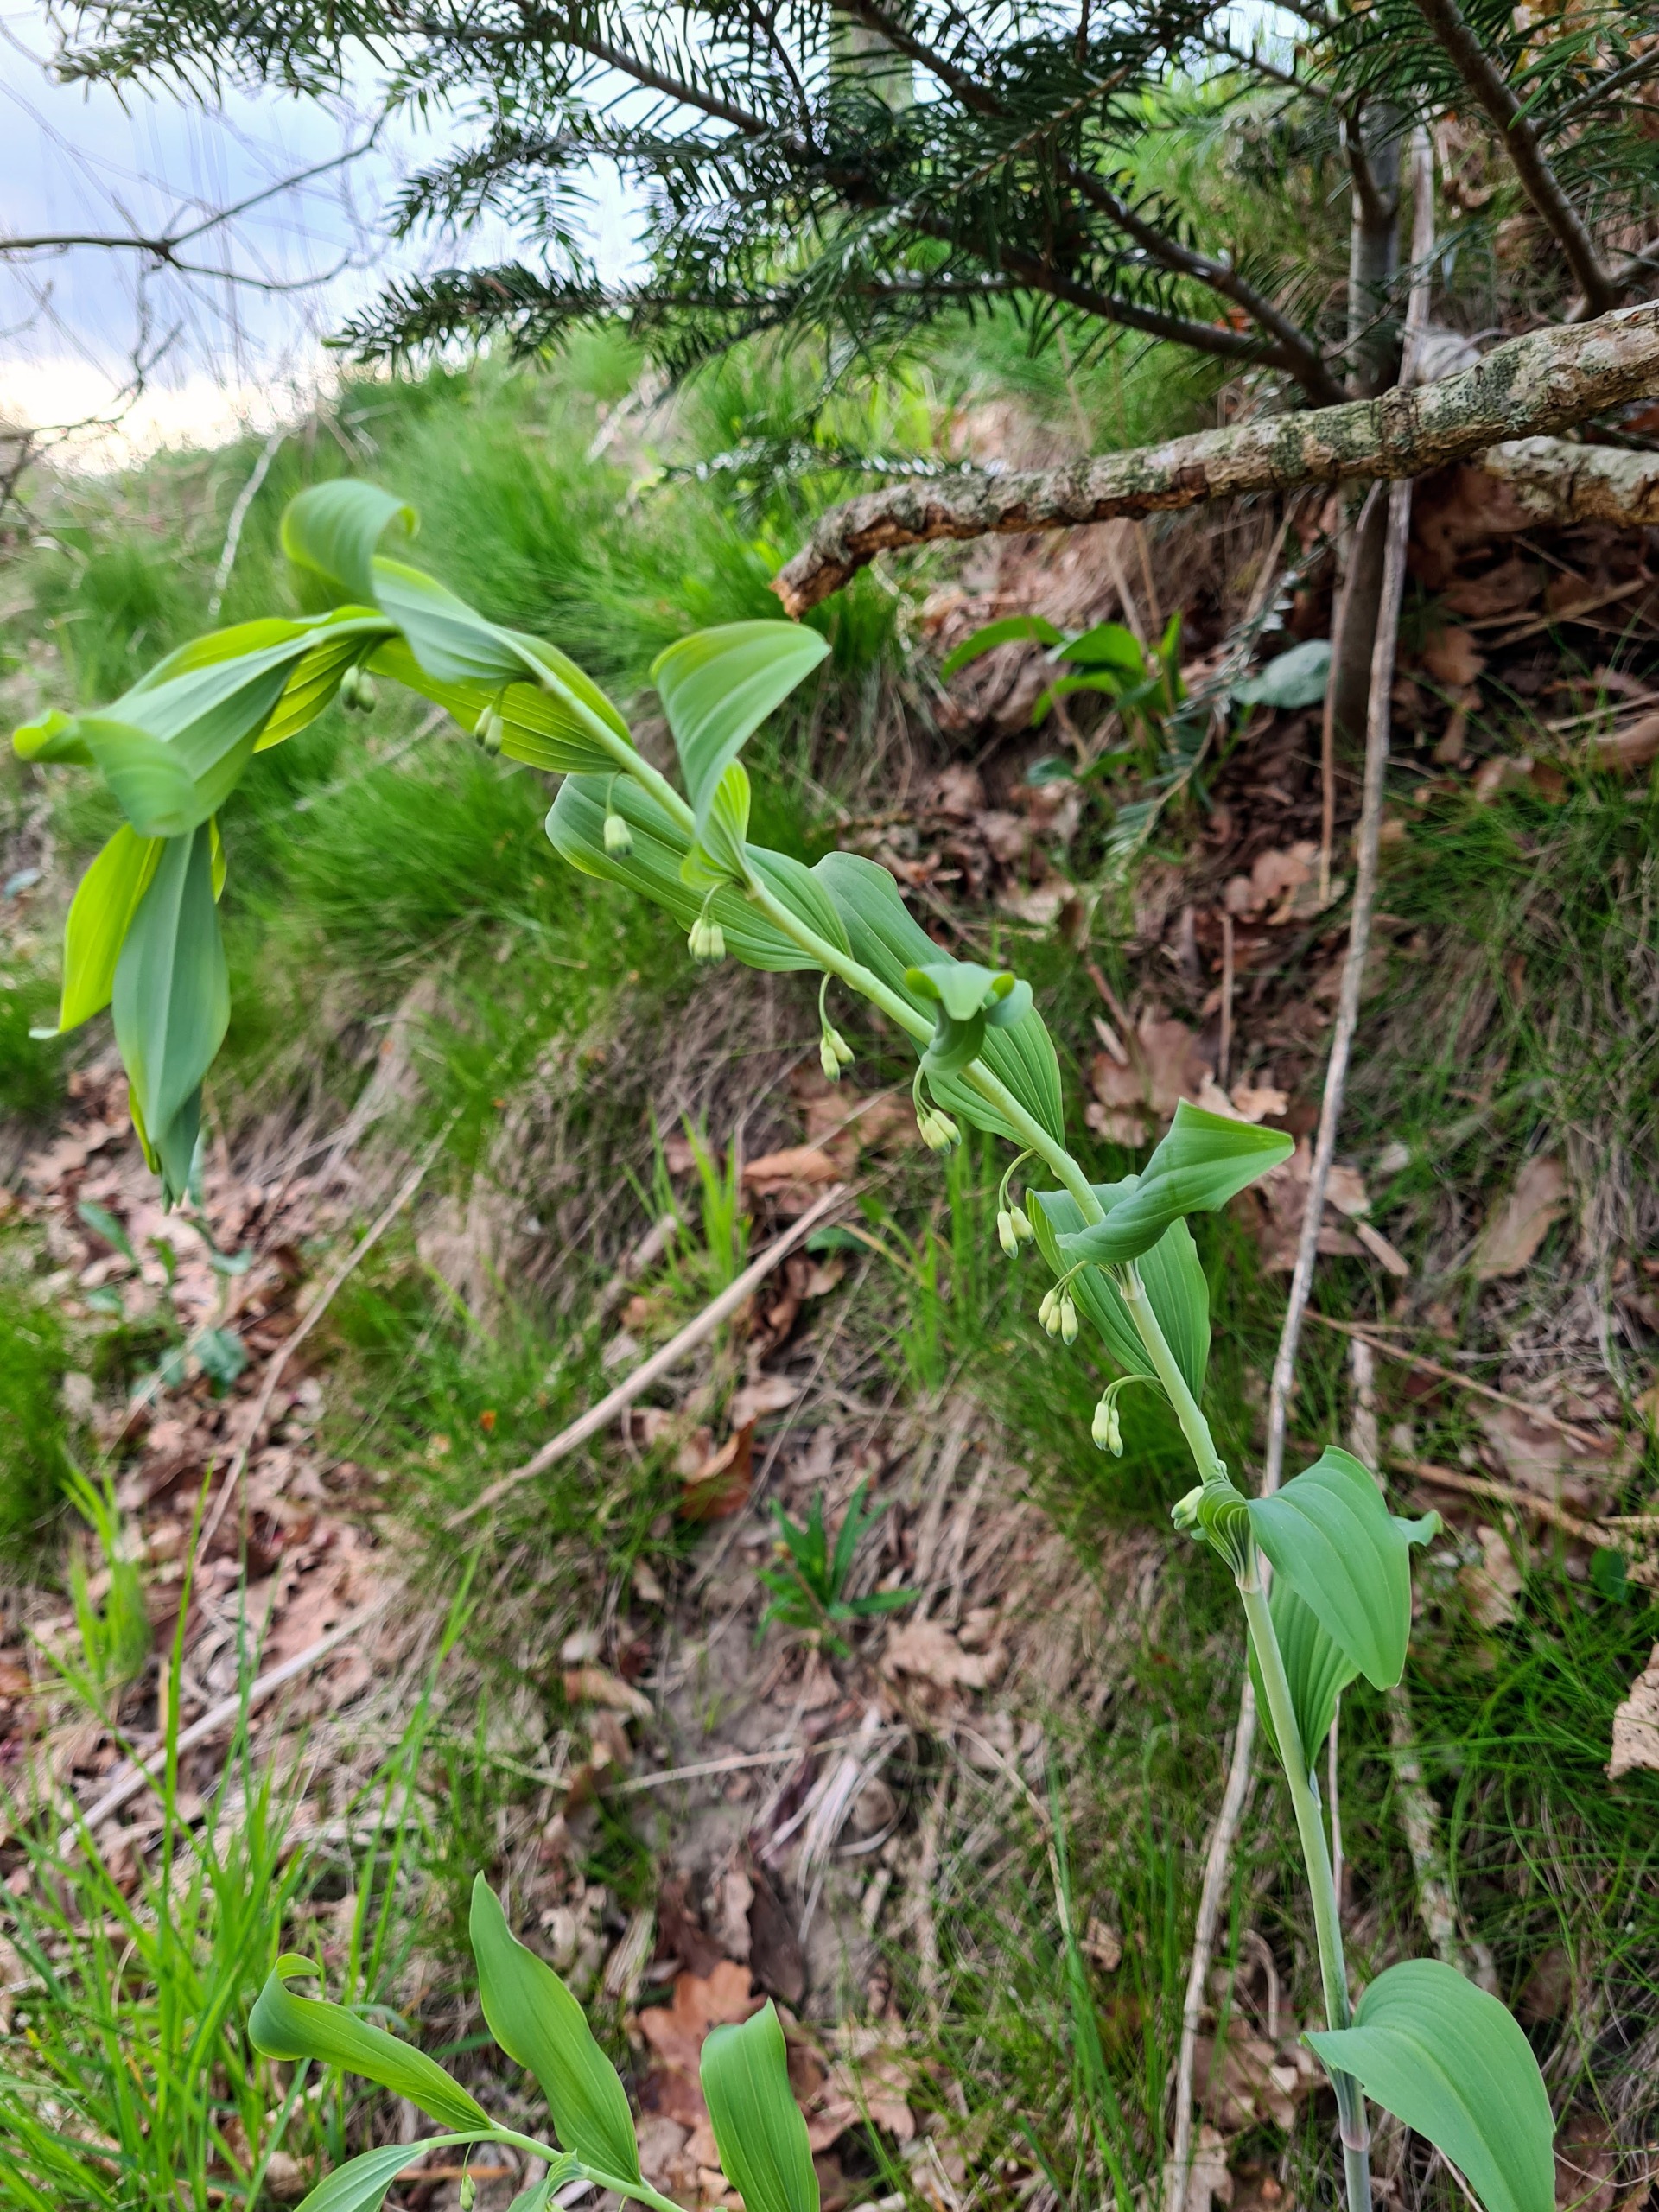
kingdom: Plantae
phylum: Tracheophyta
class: Liliopsida
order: Asparagales
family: Asparagaceae
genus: Polygonatum
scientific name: Polygonatum multiflorum
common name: Stor konval
